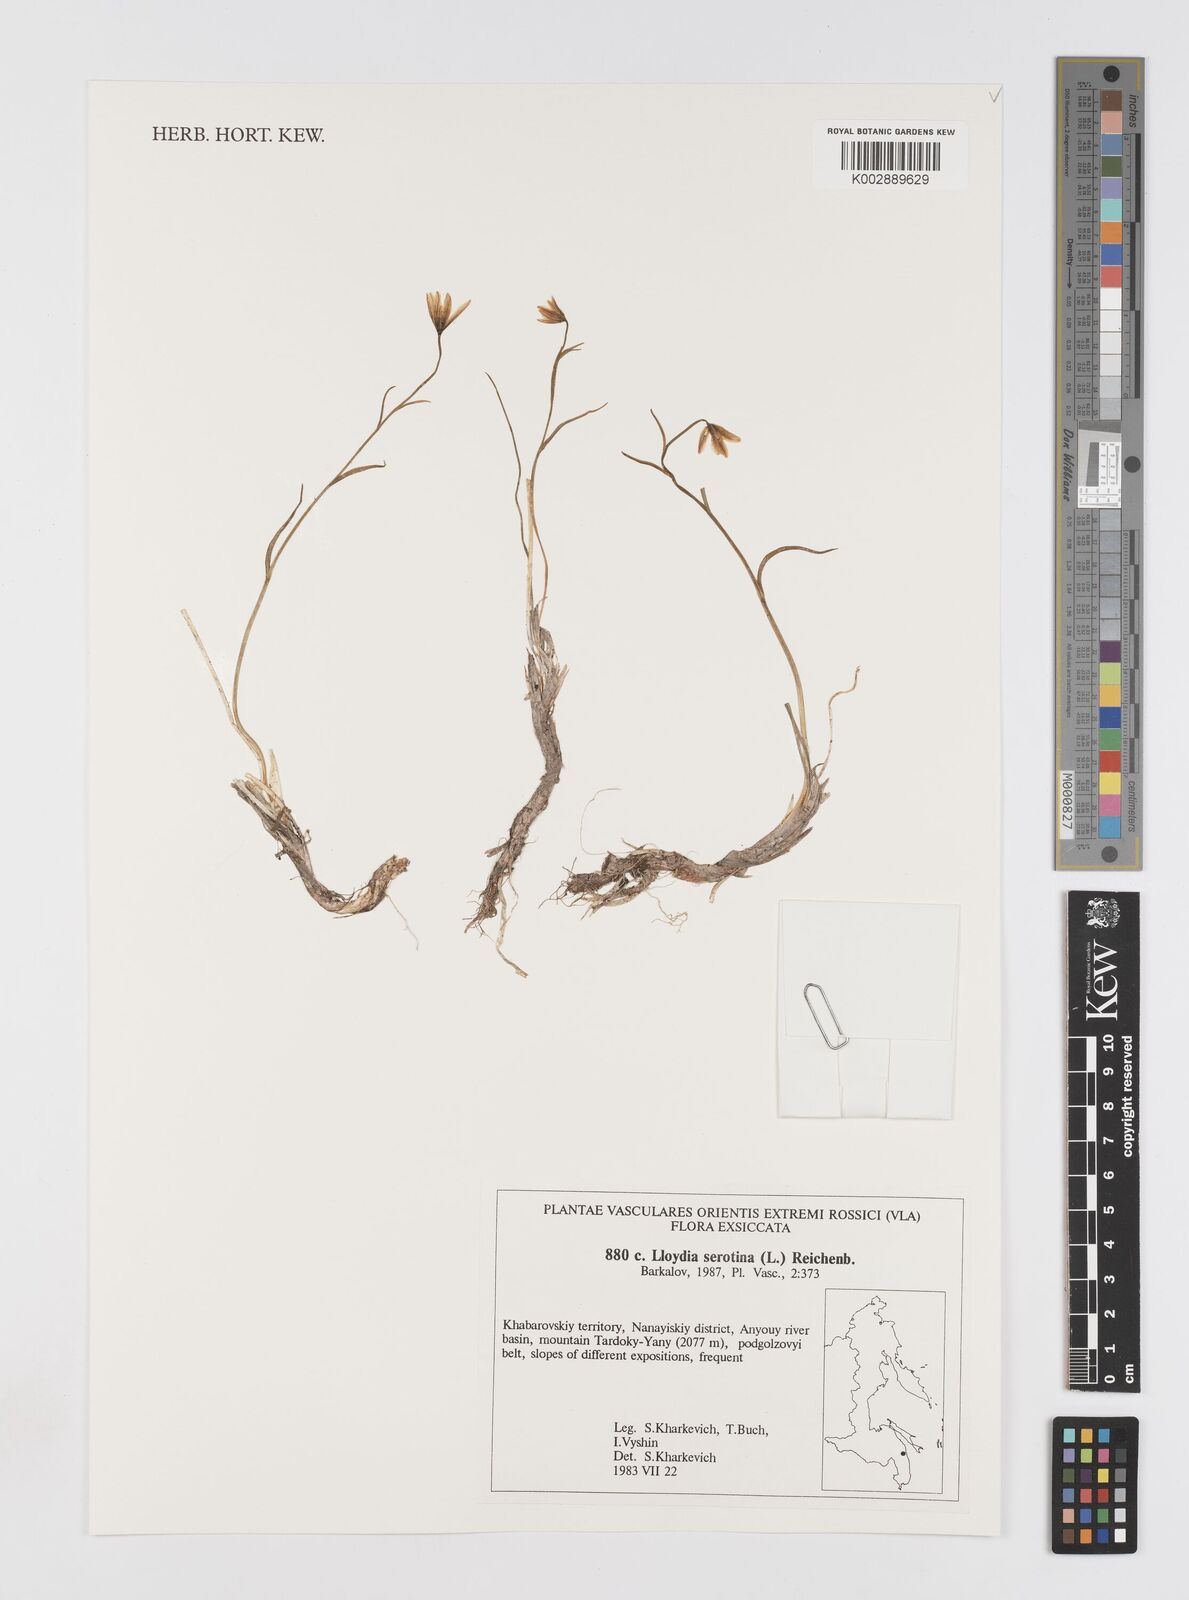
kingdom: Plantae
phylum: Tracheophyta
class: Liliopsida
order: Liliales
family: Liliaceae
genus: Gagea
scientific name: Gagea serotina
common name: Snowdon lily
